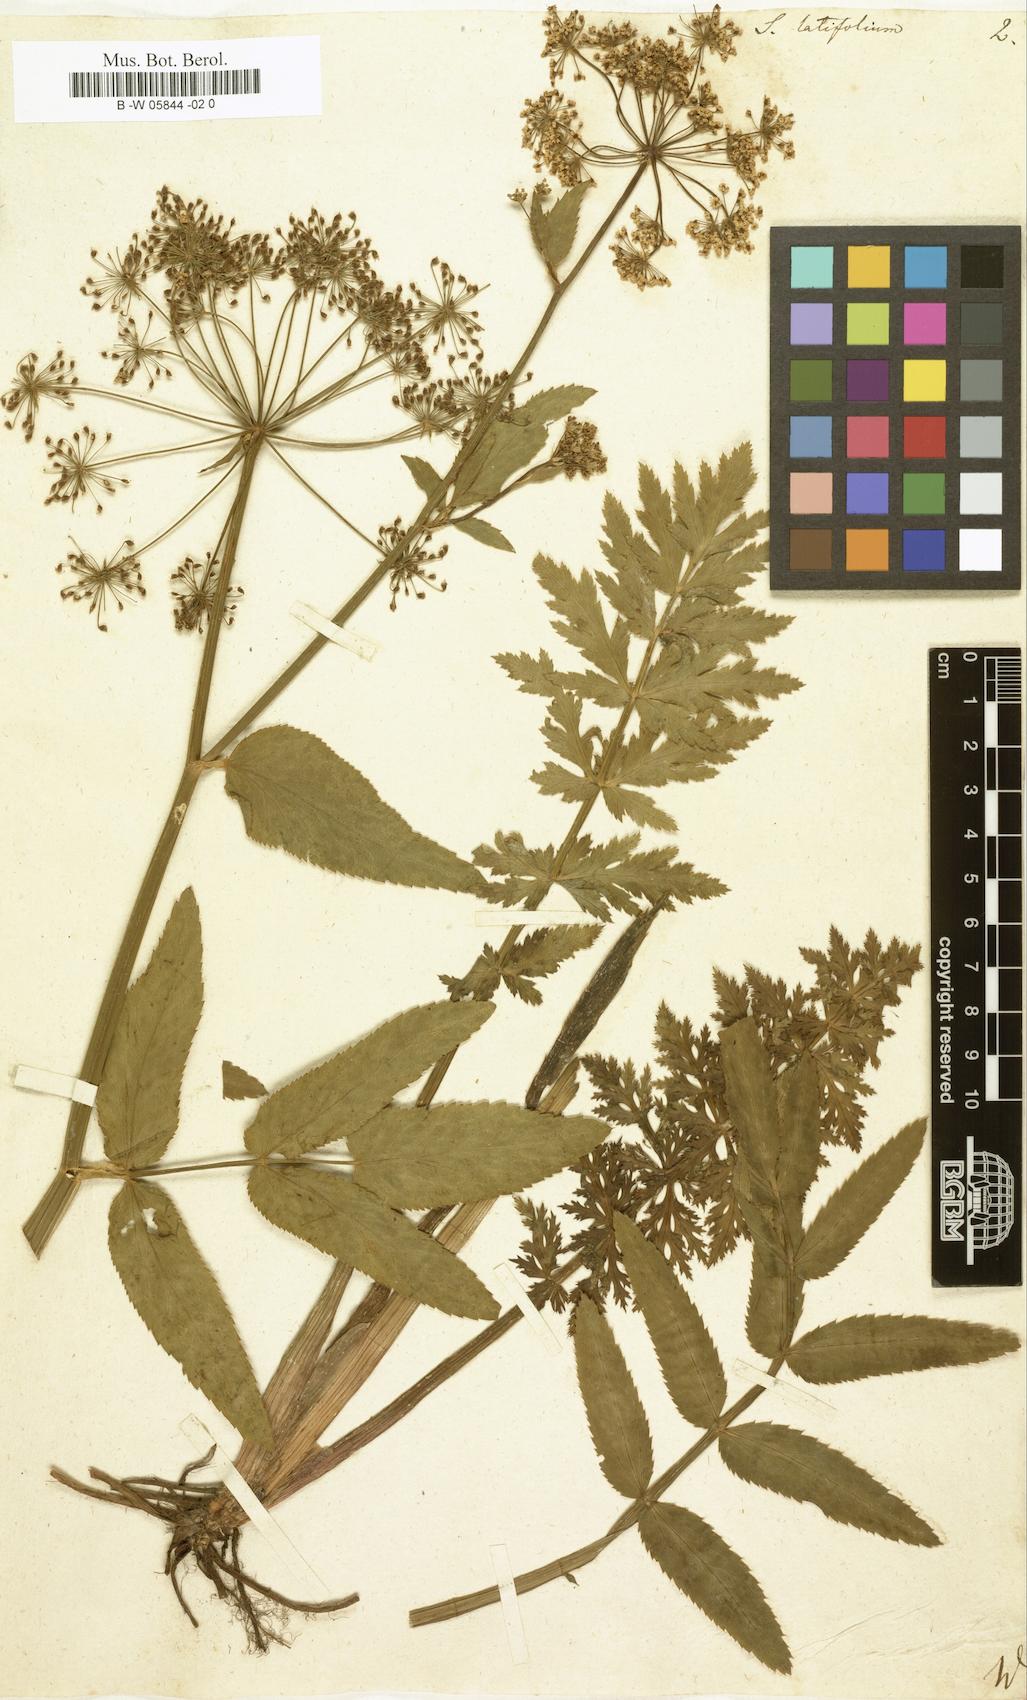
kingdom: Plantae
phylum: Tracheophyta
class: Magnoliopsida
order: Apiales
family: Apiaceae
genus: Sium
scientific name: Sium latifolium
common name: Greater water-parsnip
